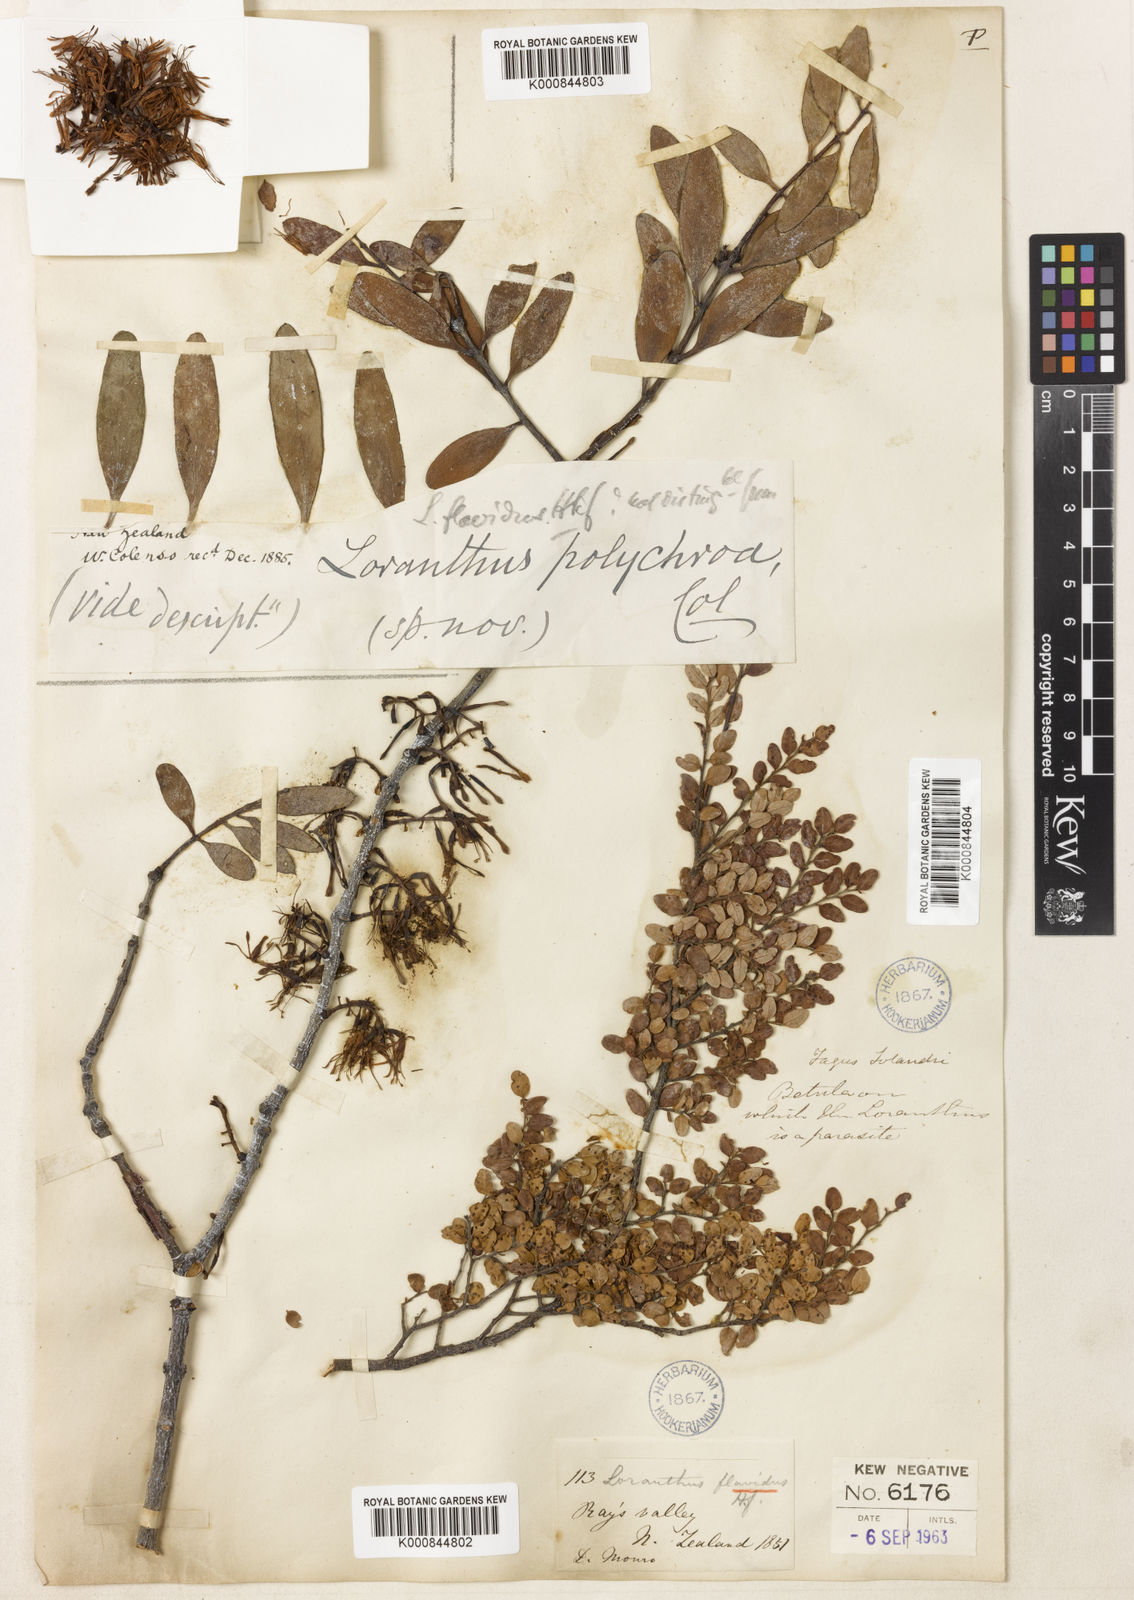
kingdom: Plantae
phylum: Tracheophyta
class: Magnoliopsida
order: Santalales
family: Loranthaceae
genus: Alepis
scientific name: Alepis flavida
